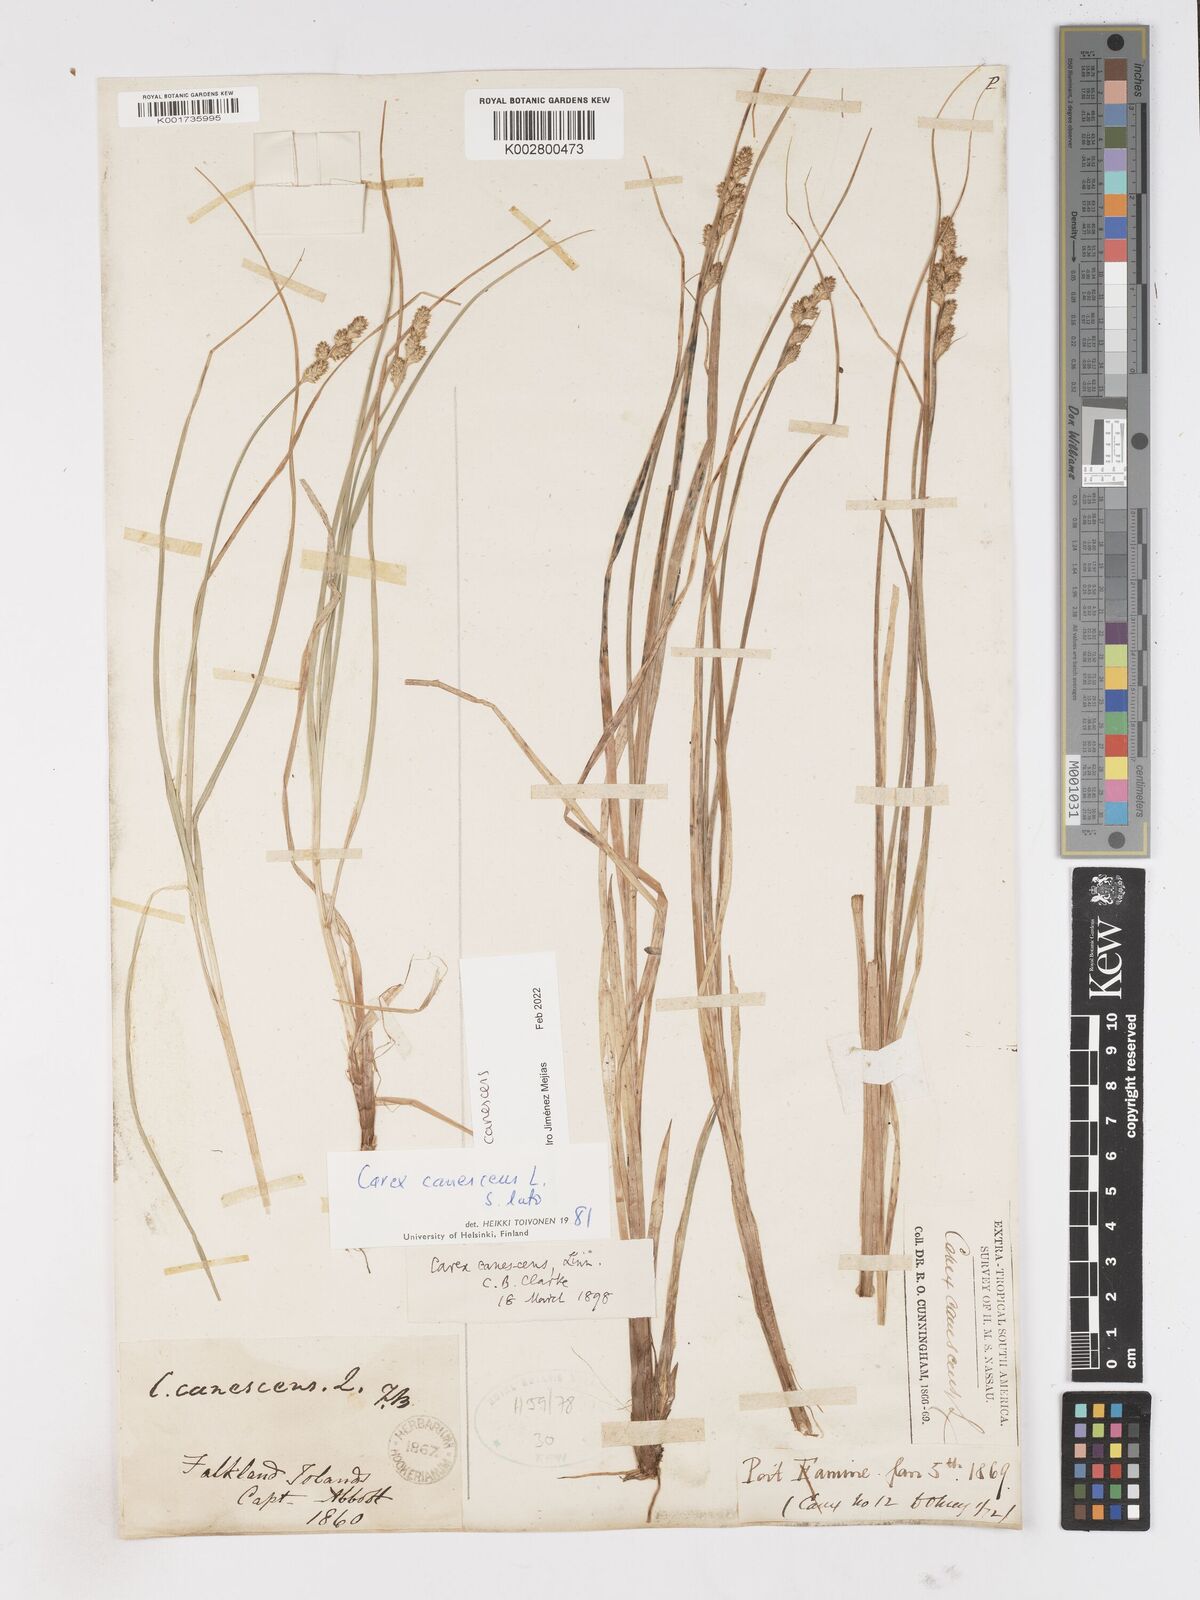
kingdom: Plantae
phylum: Tracheophyta
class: Liliopsida
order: Poales
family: Cyperaceae
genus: Carex
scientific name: Carex curta
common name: White sedge
